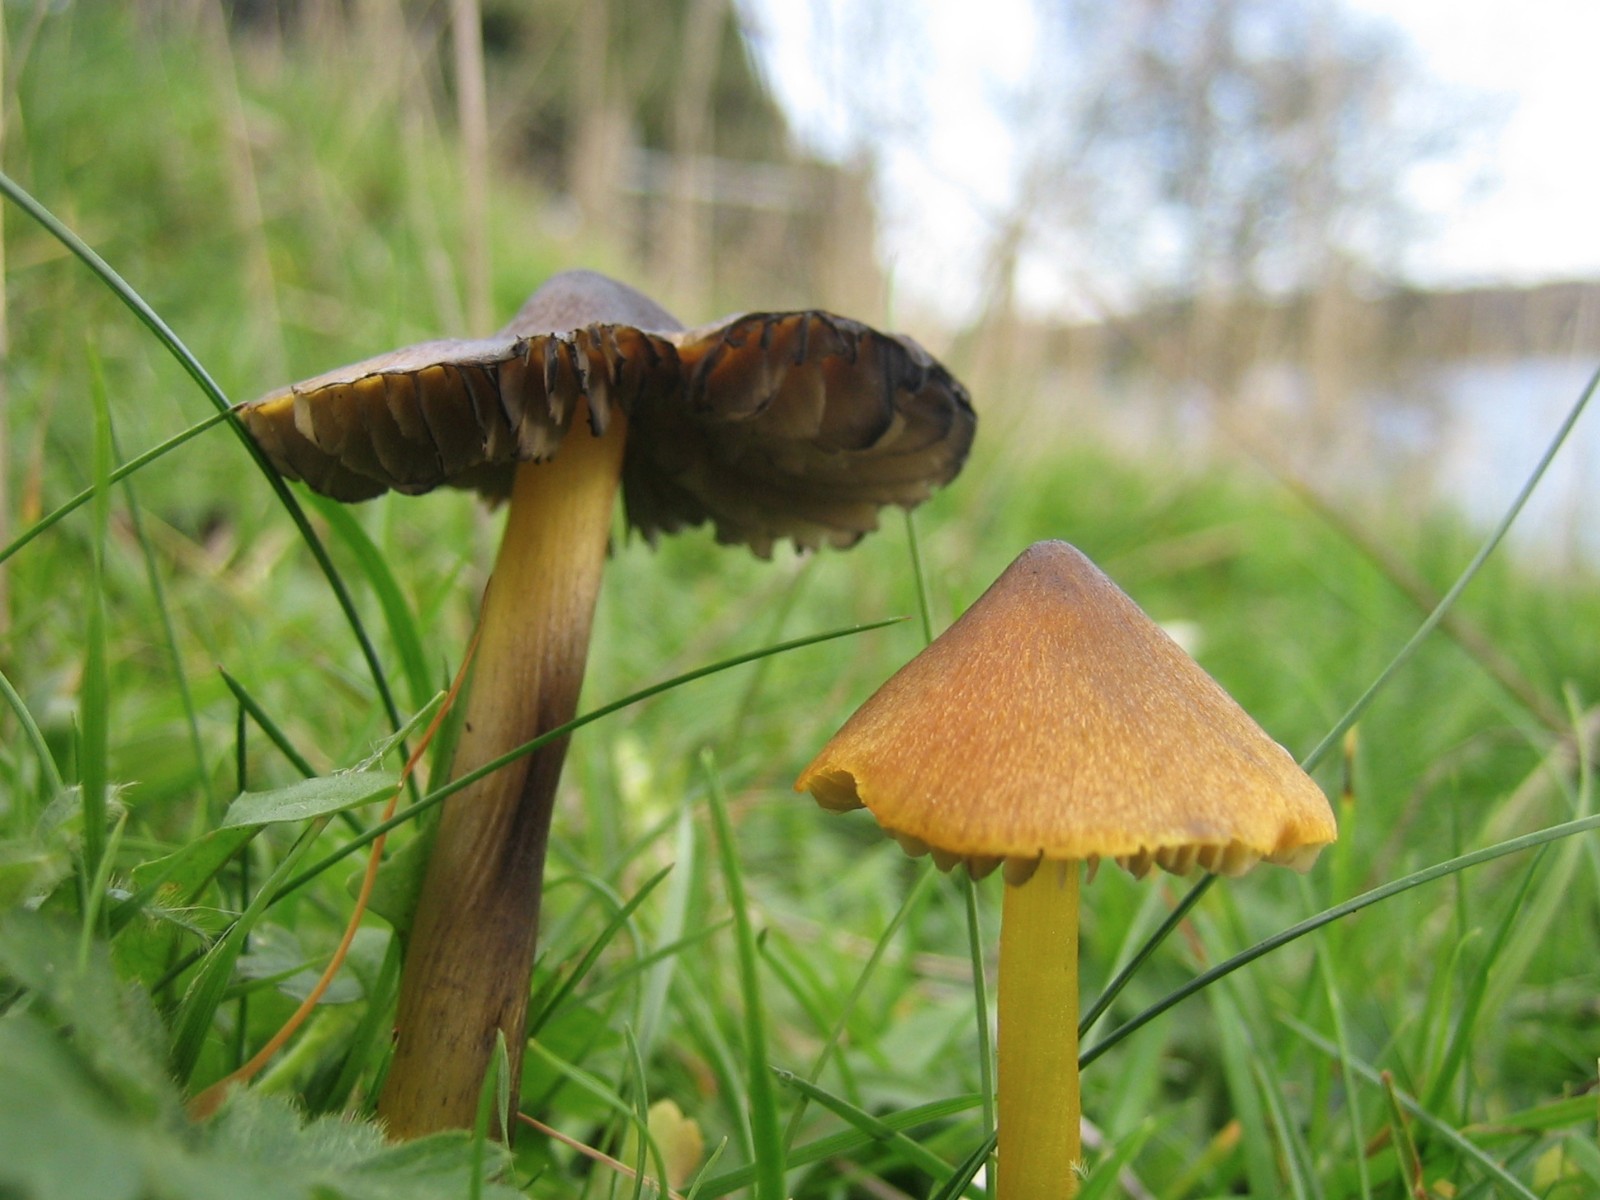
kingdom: Fungi
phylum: Basidiomycota
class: Agaricomycetes
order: Agaricales
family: Hygrophoraceae
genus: Hygrocybe
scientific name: Hygrocybe conica
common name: kegle-vokshat
